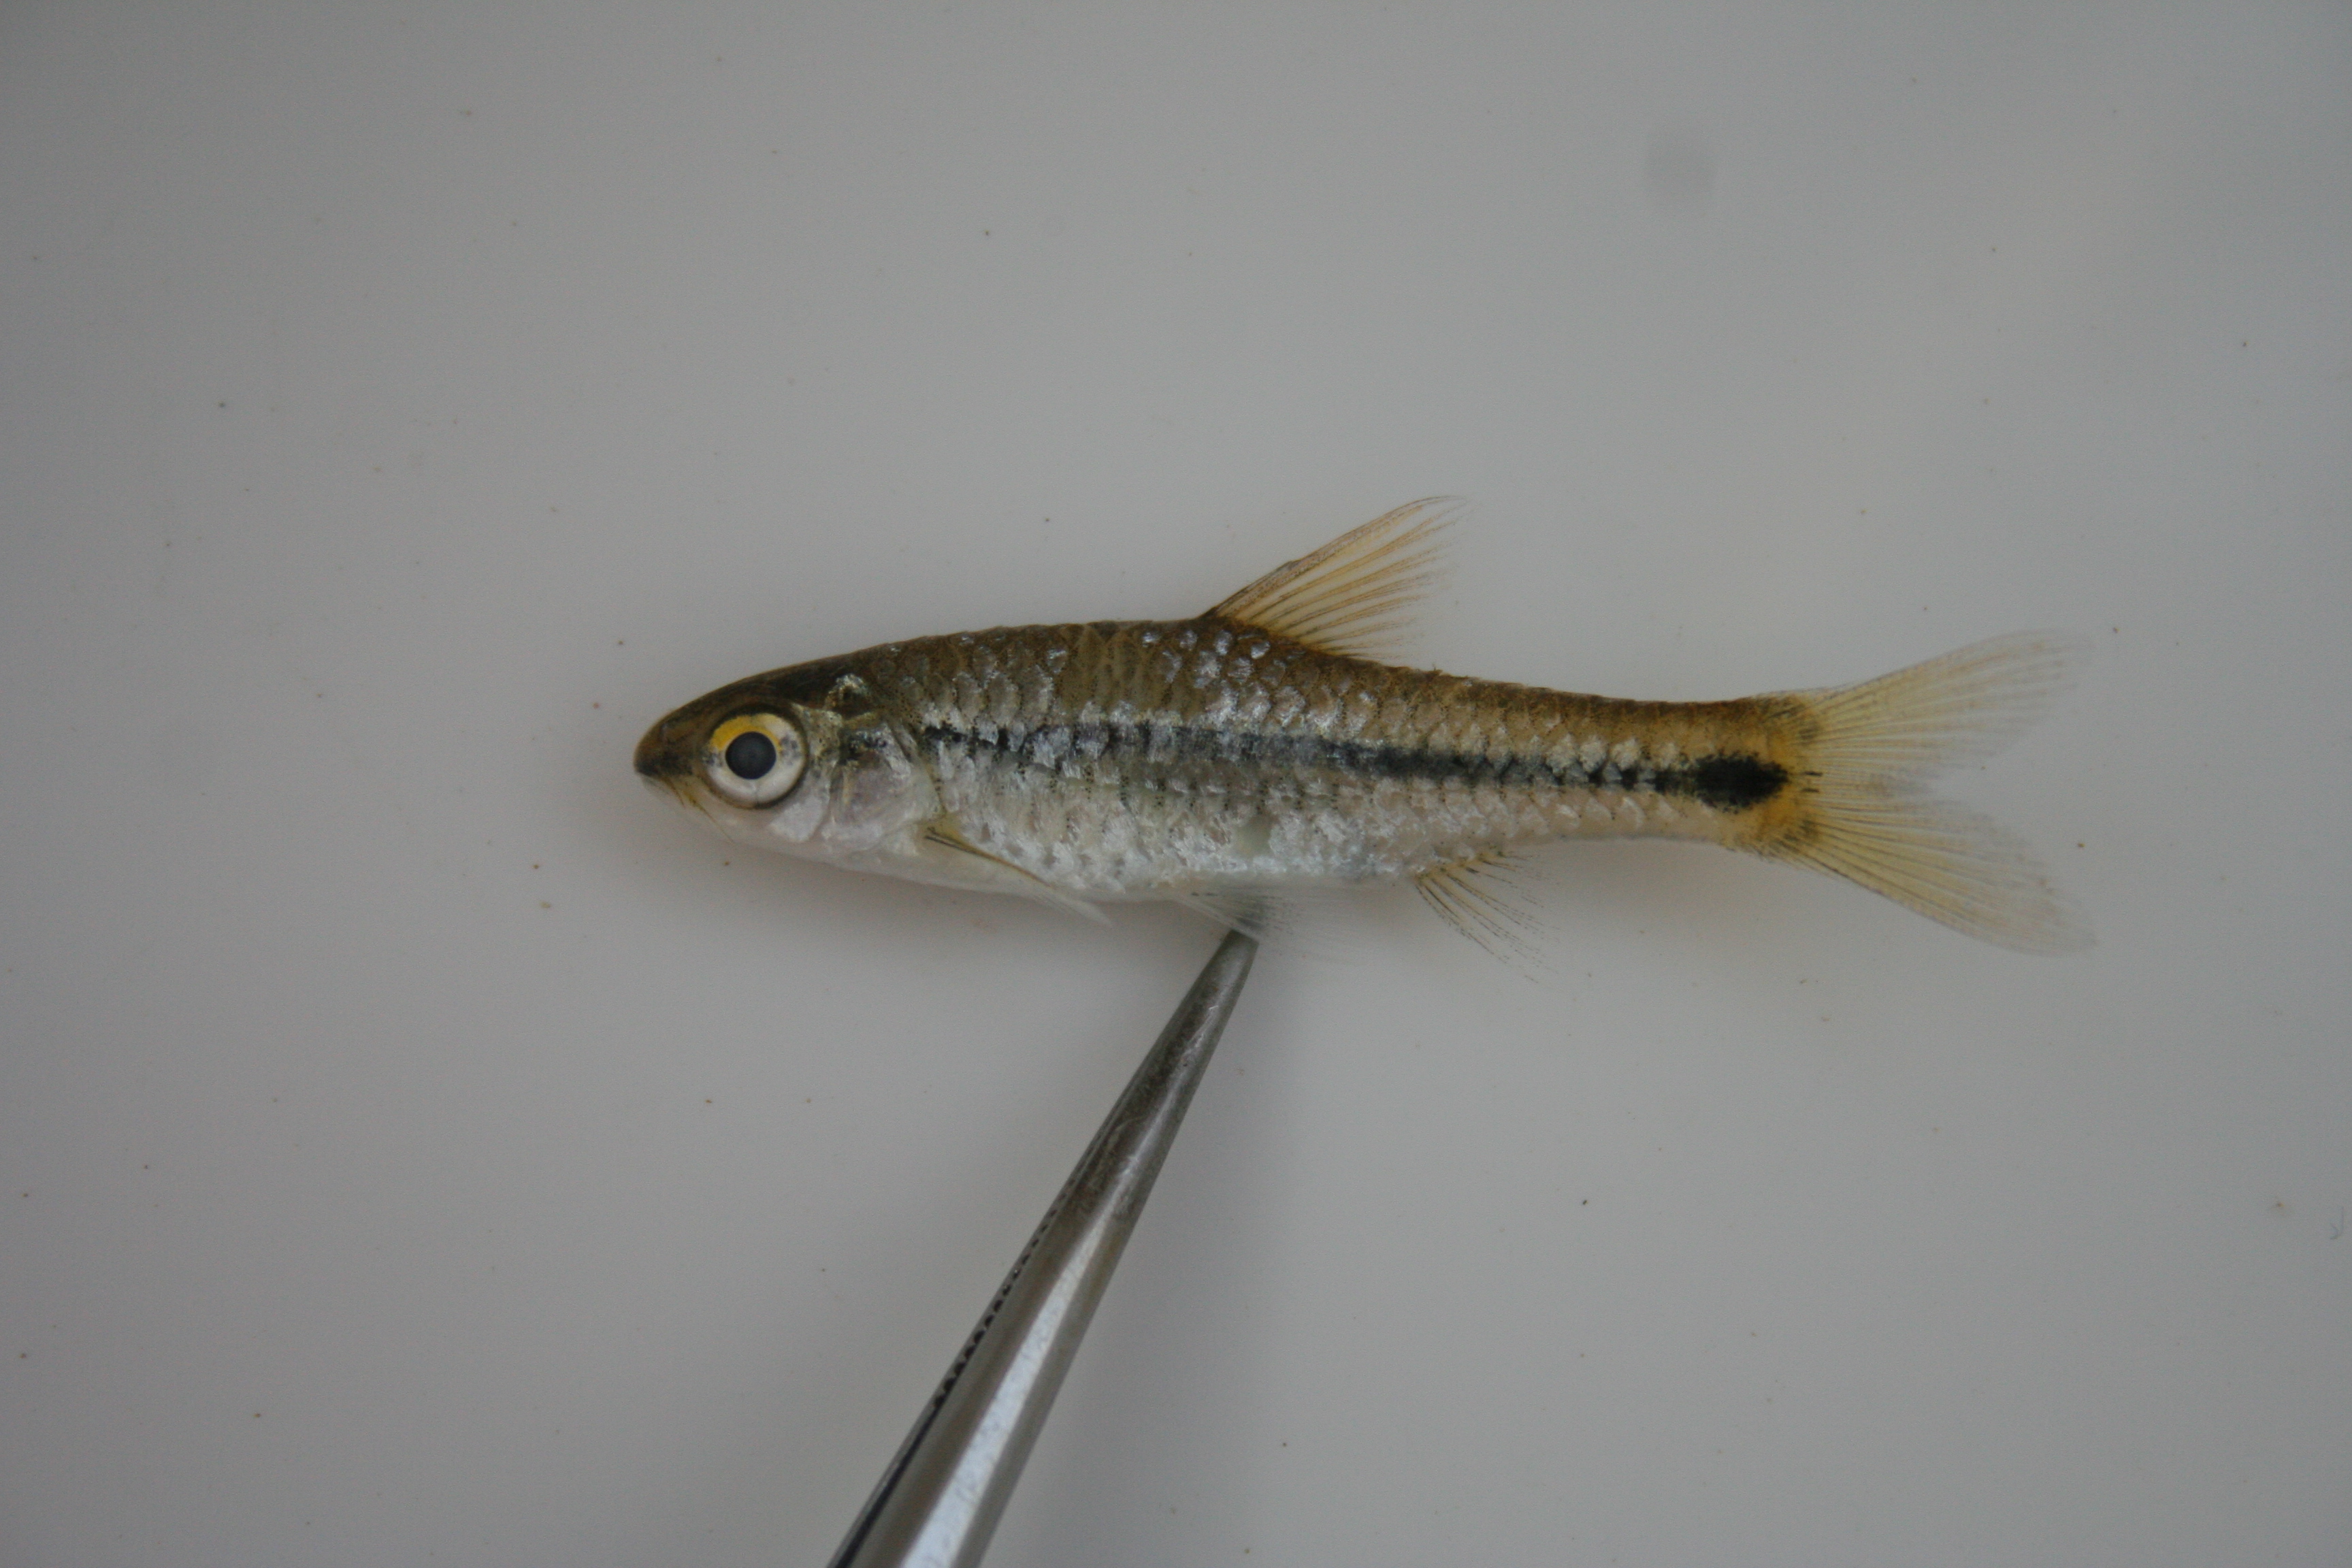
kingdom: Animalia
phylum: Chordata
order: Cypriniformes
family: Cyprinidae
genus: Enteromius
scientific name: Enteromius thamalakanensis
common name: Thamalakane barb
